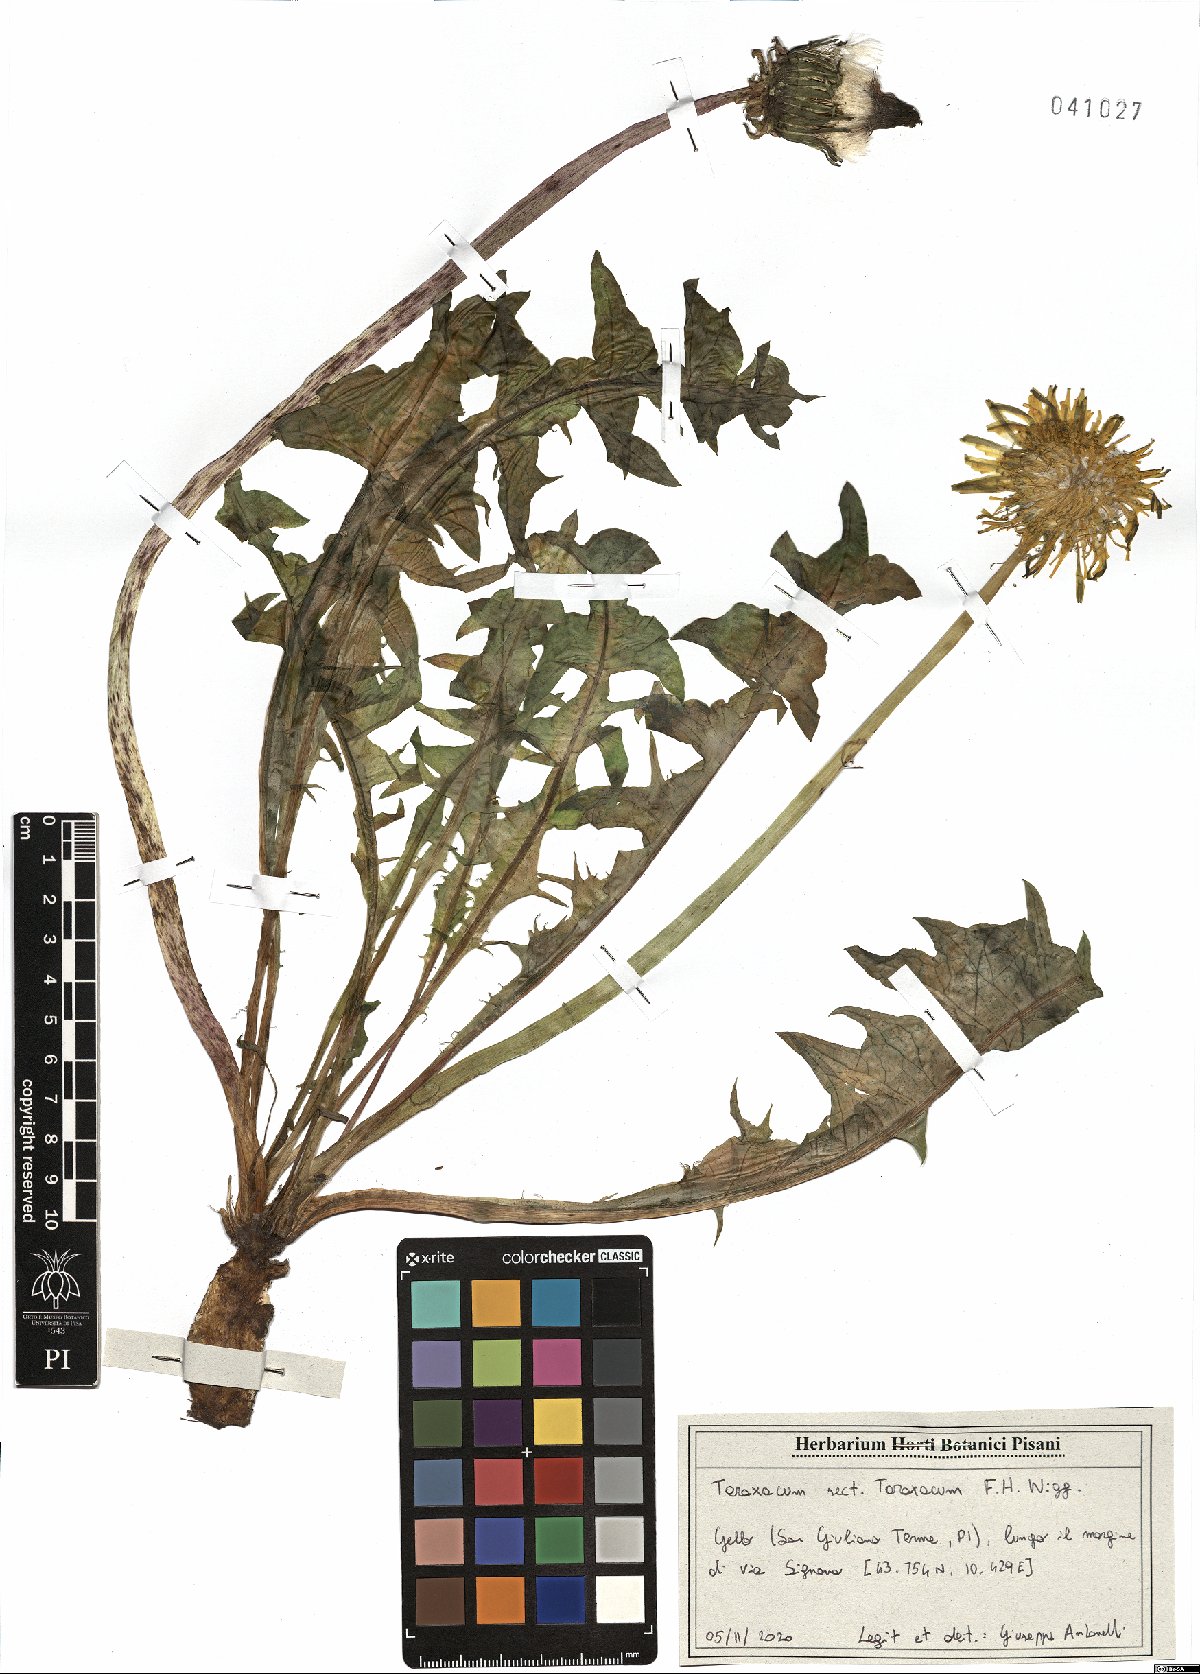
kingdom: Plantae
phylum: Tracheophyta
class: Magnoliopsida
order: Asterales
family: Asteraceae
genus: Taraxacum
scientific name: Taraxacum officinale
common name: Common dandelion
